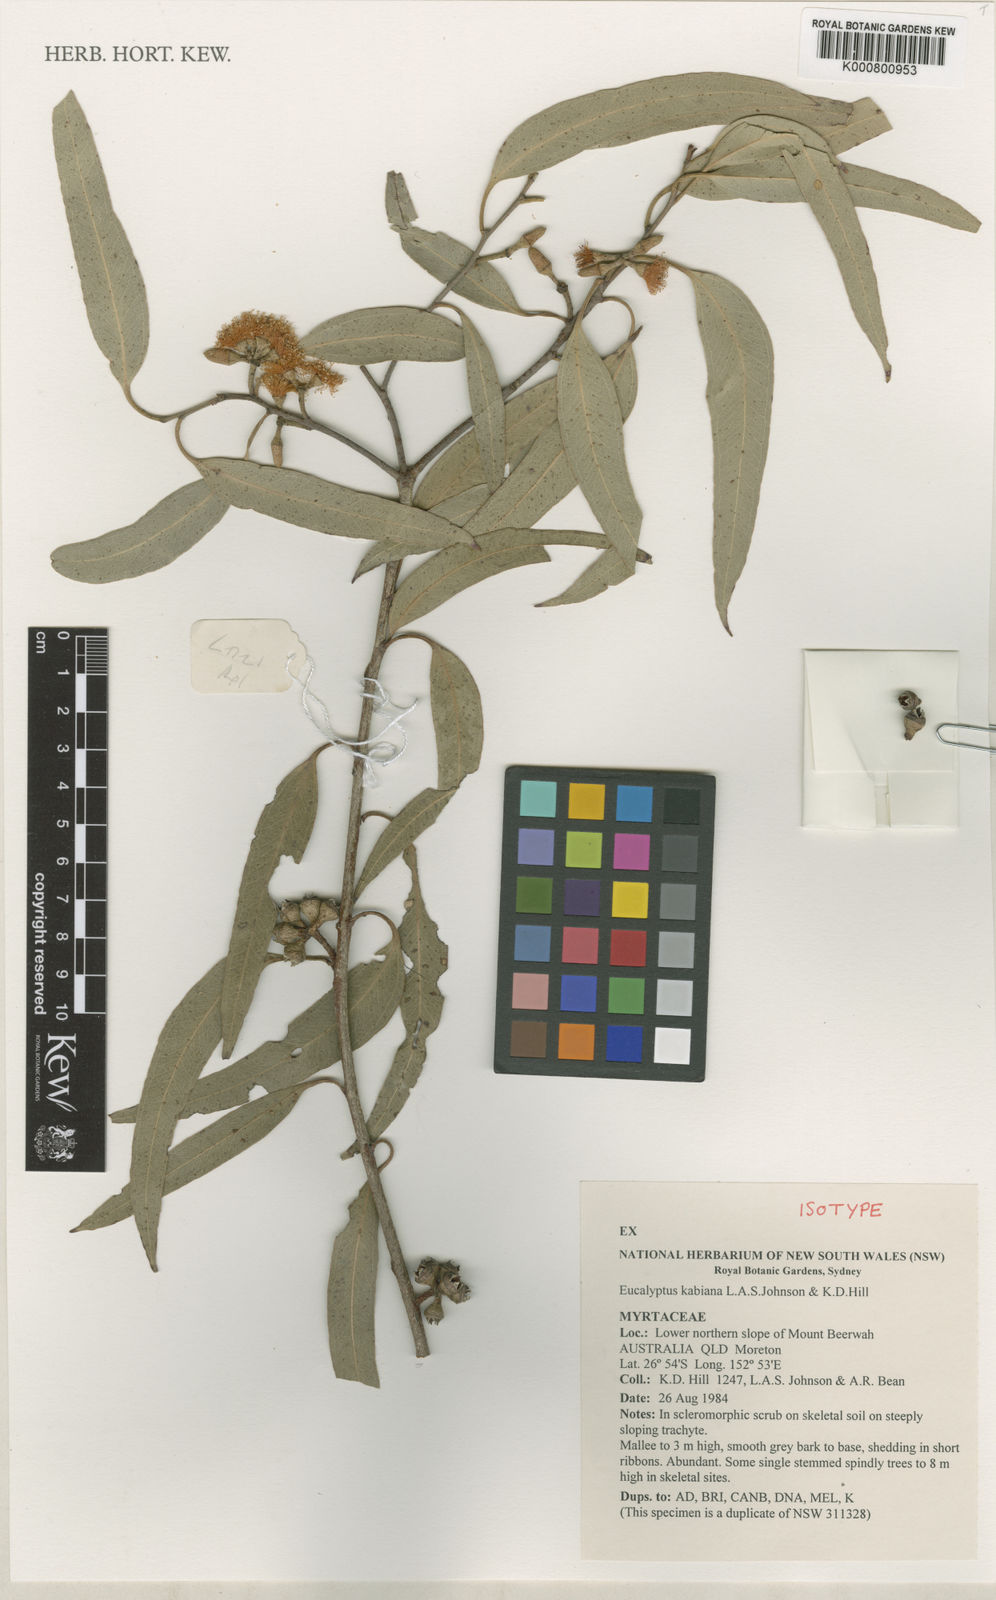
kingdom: Plantae
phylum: Tracheophyta
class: Magnoliopsida
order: Myrtales
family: Myrtaceae
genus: Eucalyptus
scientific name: Eucalyptus kabiana
